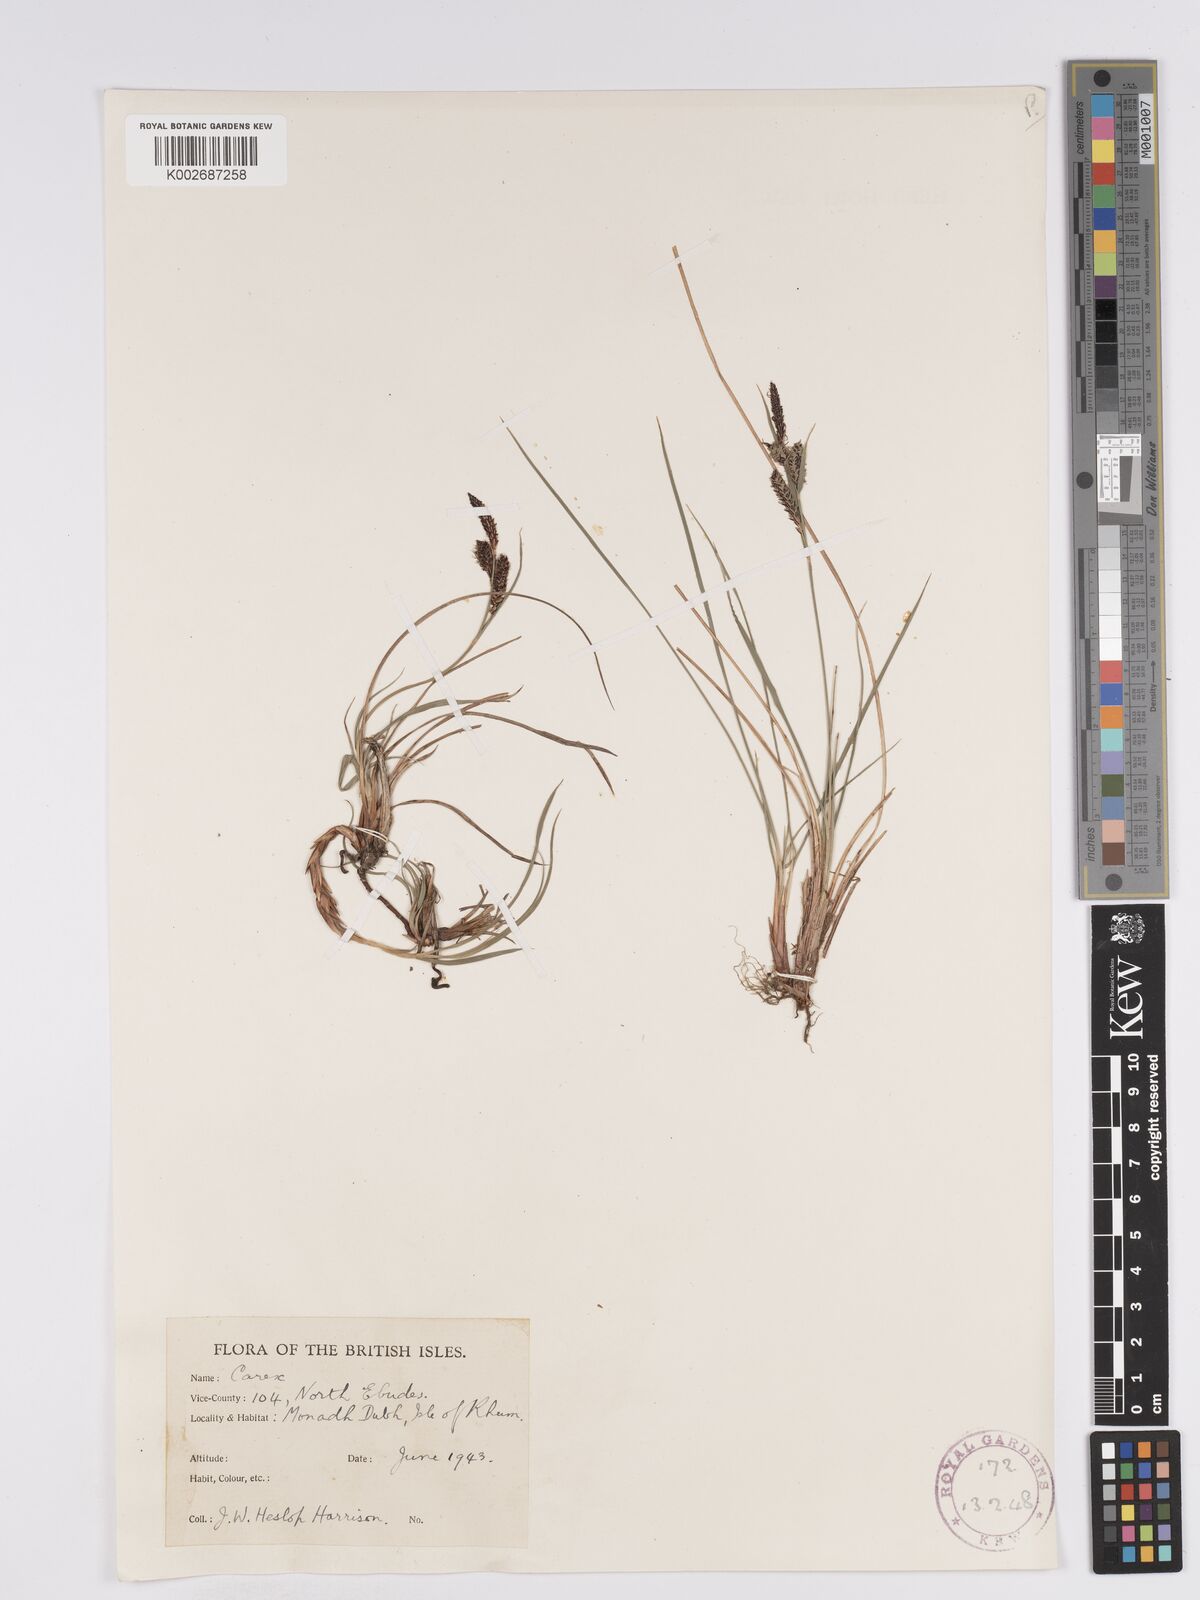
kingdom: Plantae
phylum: Tracheophyta
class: Liliopsida
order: Poales
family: Cyperaceae
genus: Carex
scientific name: Carex nigra
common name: Common sedge
